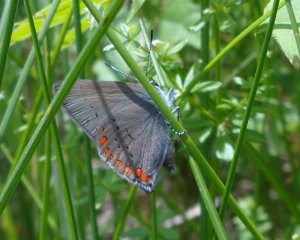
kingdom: Animalia
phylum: Arthropoda
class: Insecta
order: Lepidoptera
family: Lycaenidae
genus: Harkenclenus
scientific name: Harkenclenus titus
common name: Coral Hairstreak
